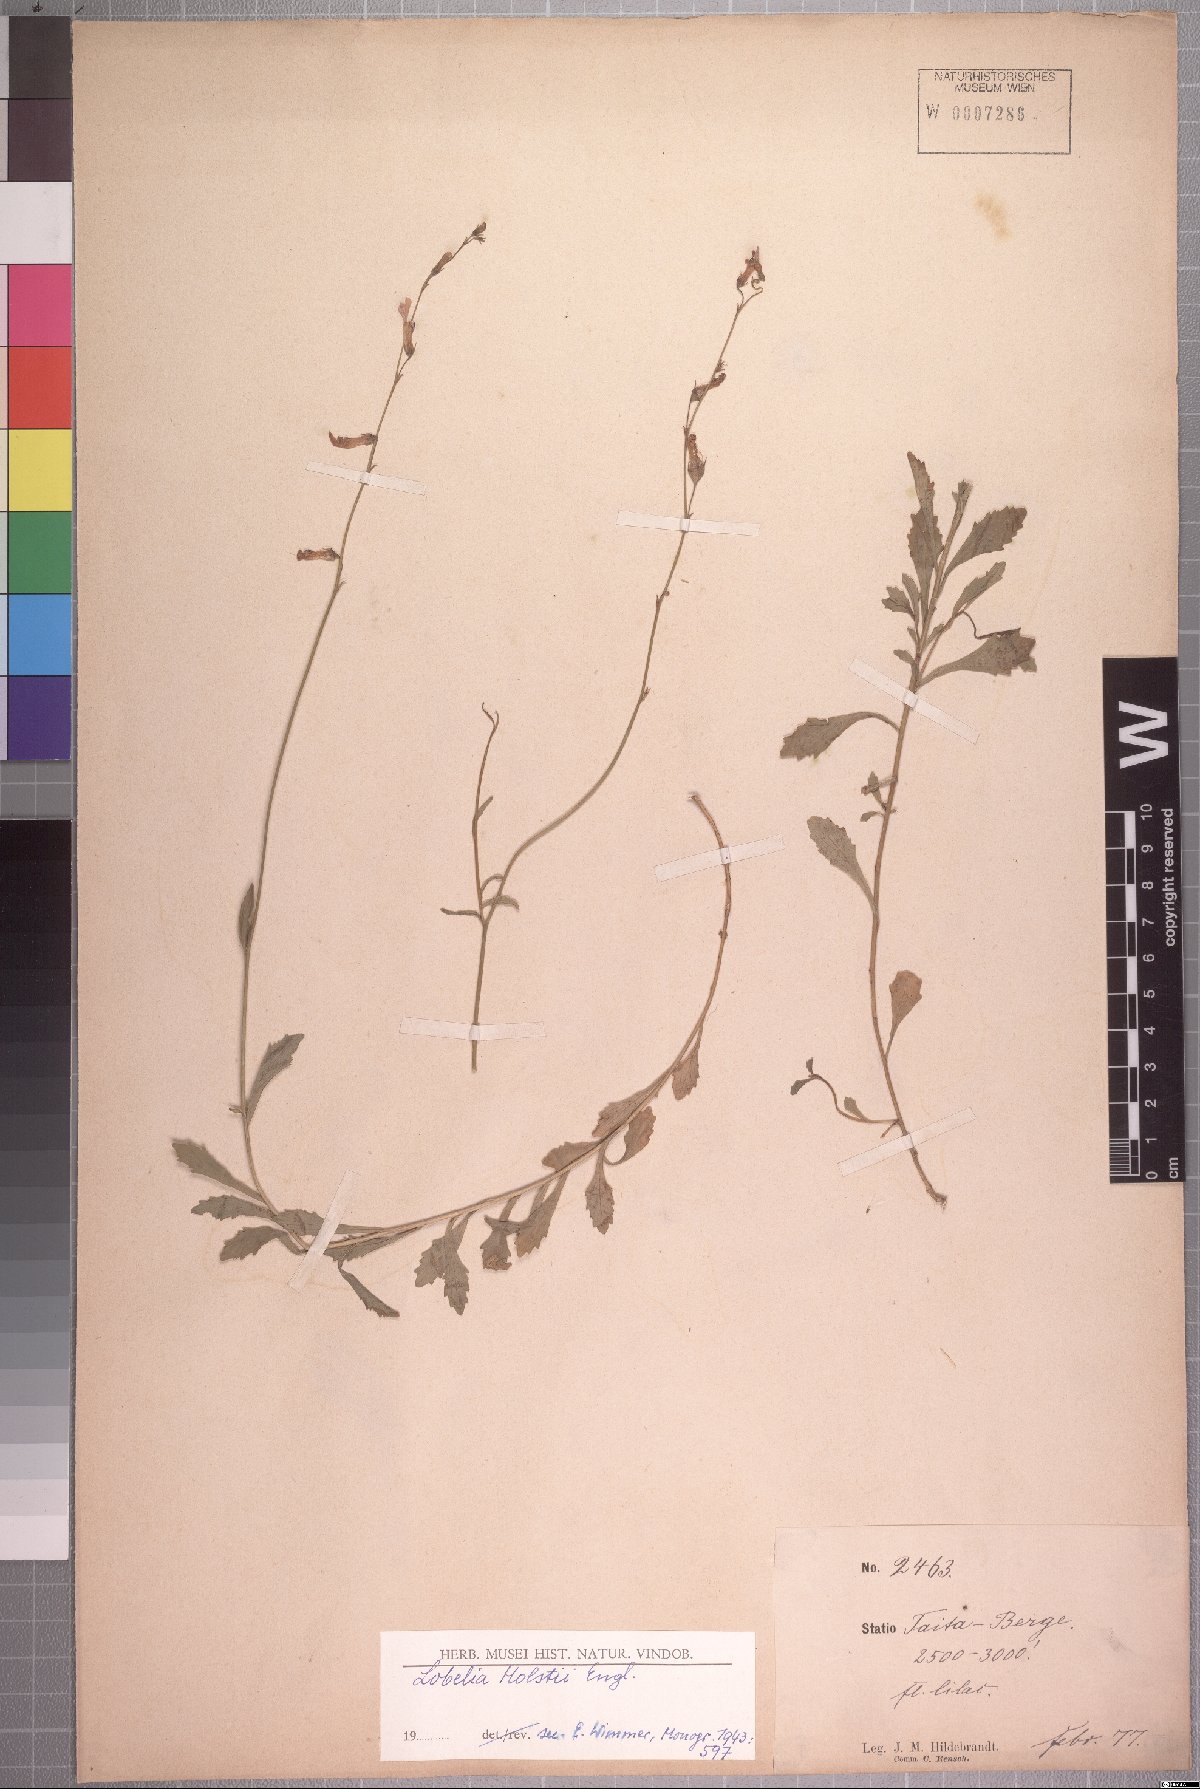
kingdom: Plantae
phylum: Tracheophyta
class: Magnoliopsida
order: Asterales
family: Campanulaceae
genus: Lobelia
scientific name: Lobelia holstii
